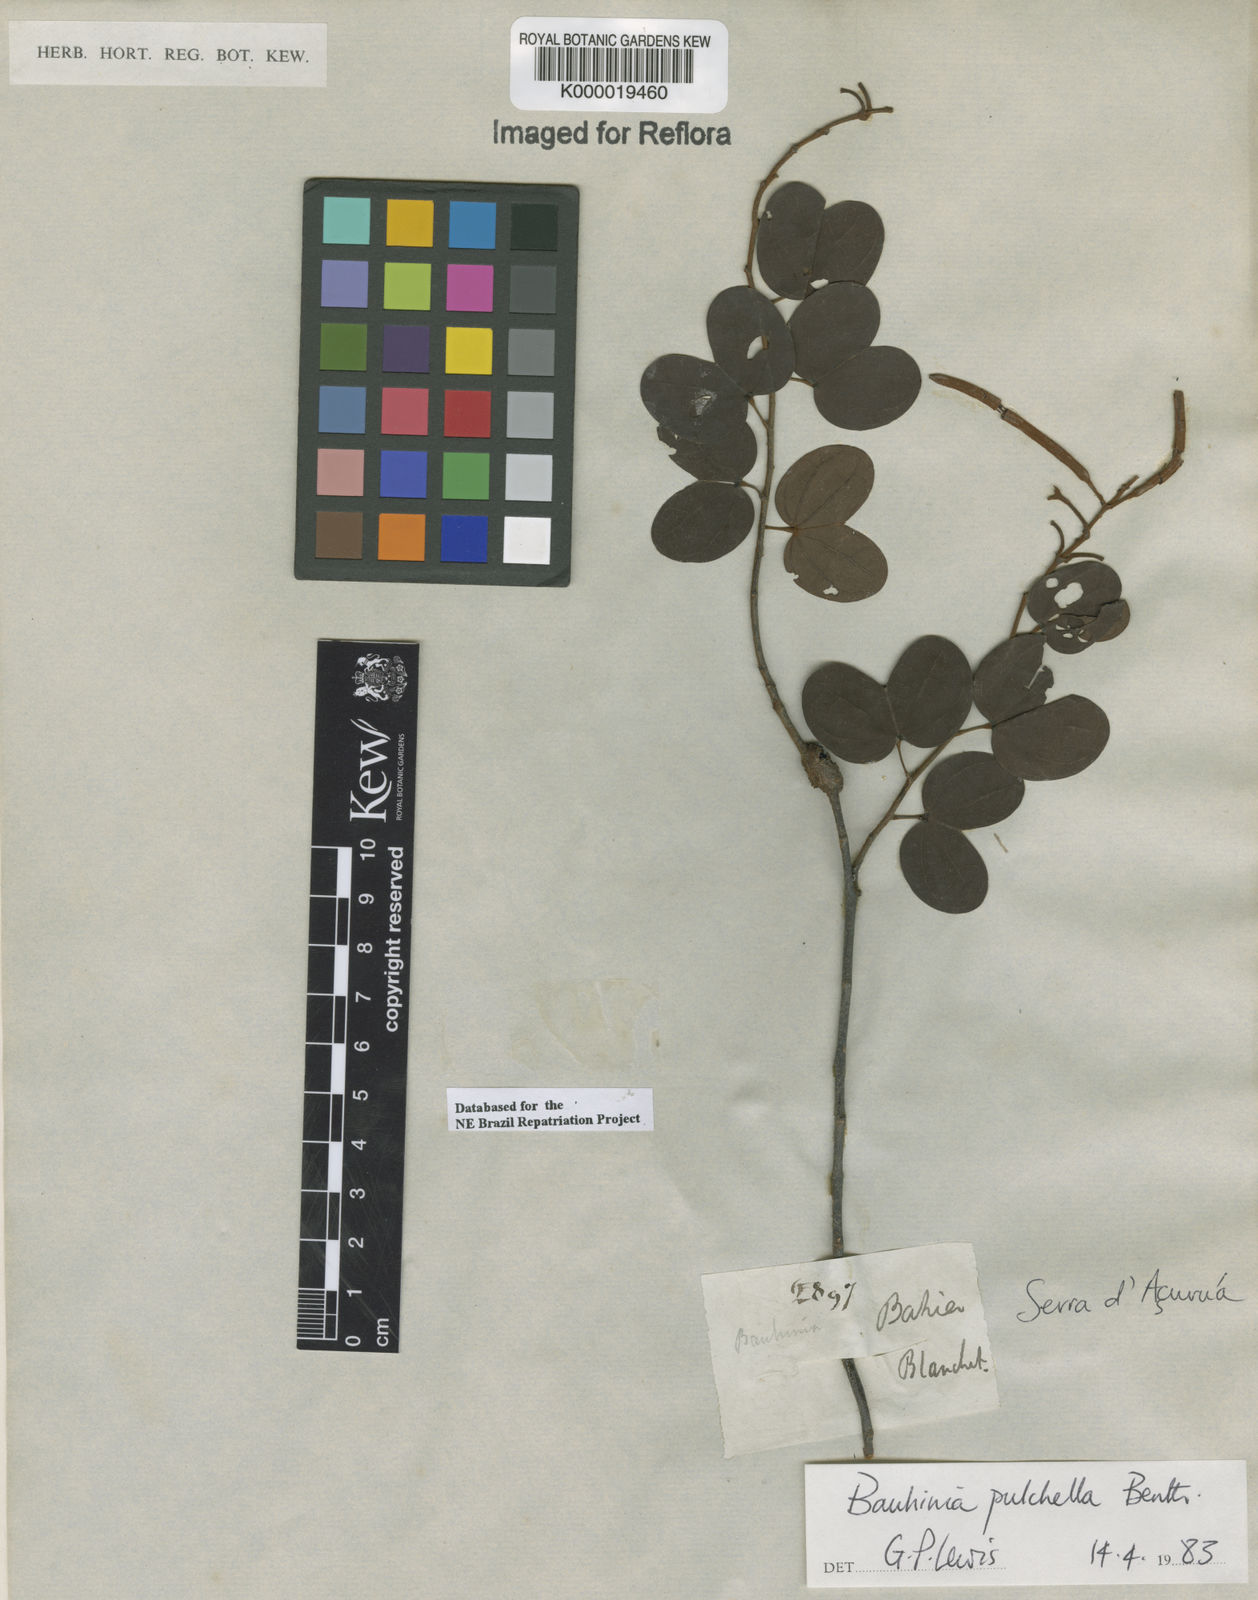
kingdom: Plantae
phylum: Tracheophyta
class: Magnoliopsida
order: Fabales
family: Fabaceae
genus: Bauhinia
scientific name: Bauhinia pulchella
